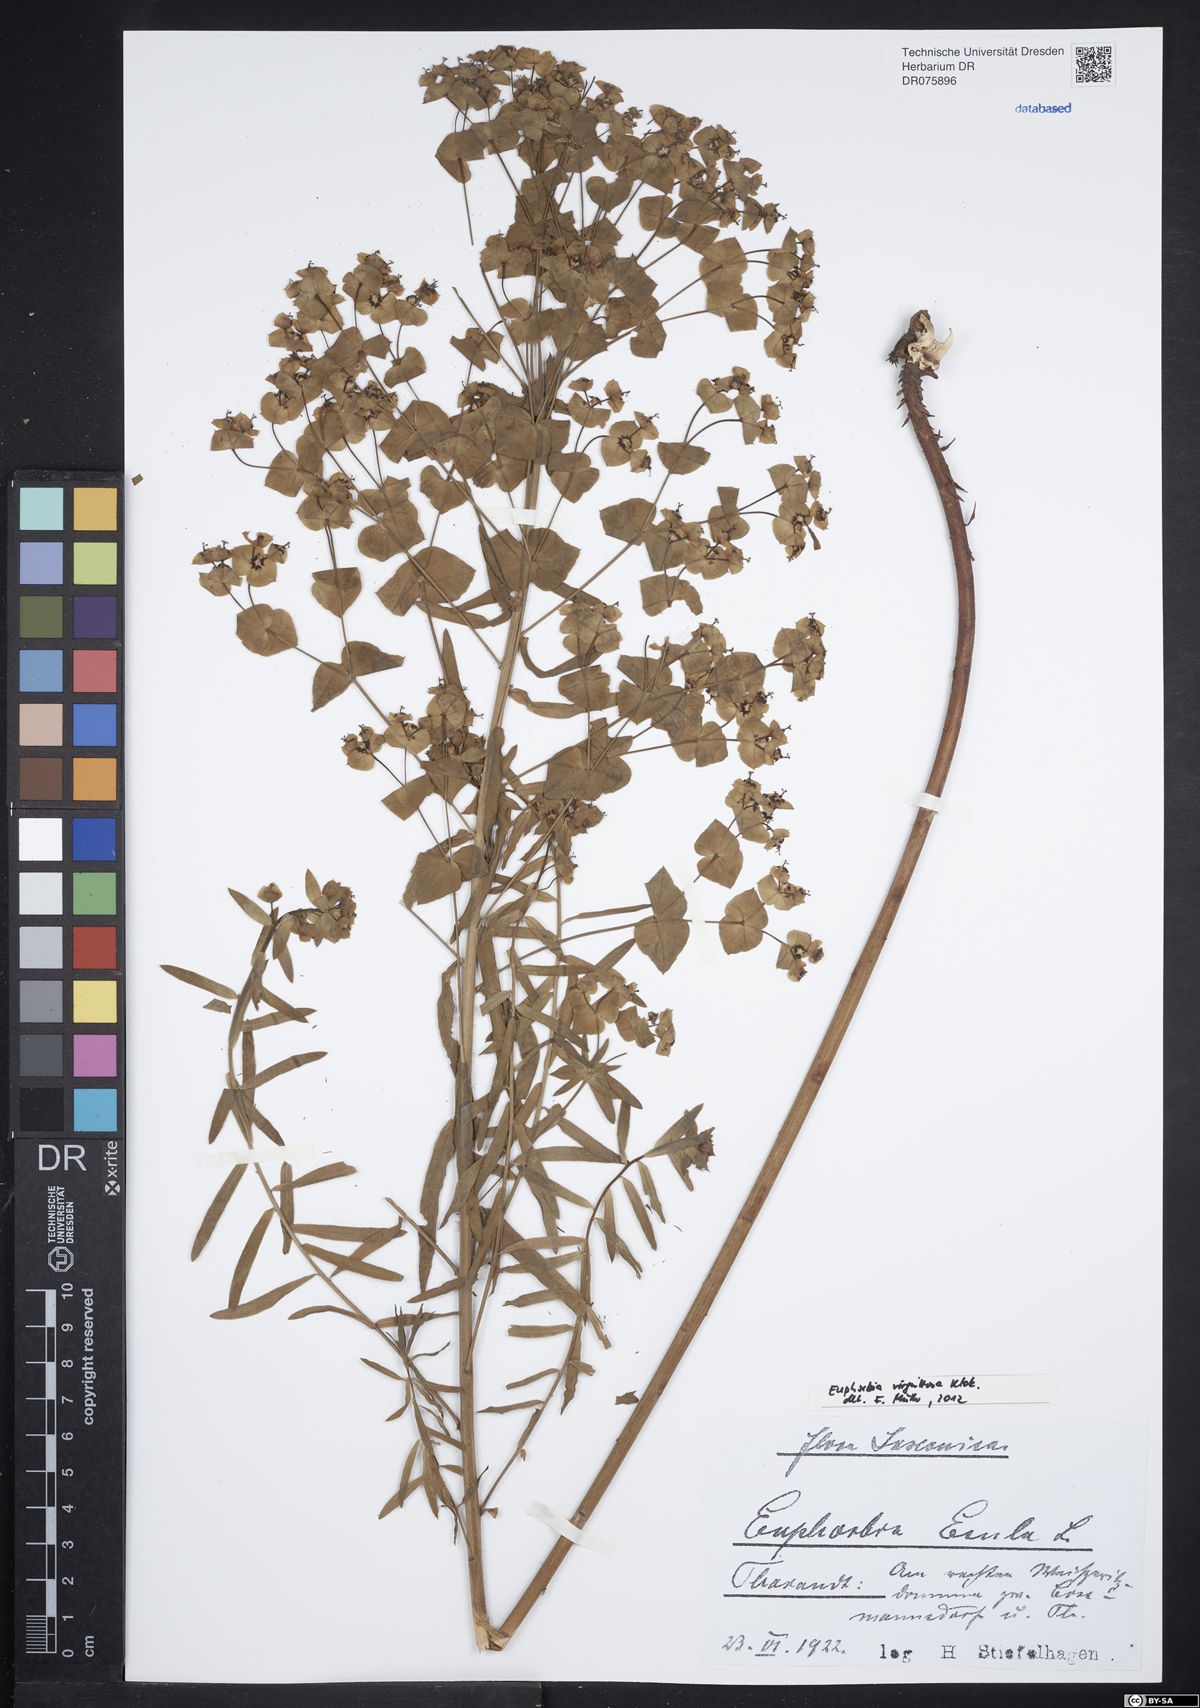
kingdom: Plantae
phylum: Tracheophyta
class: Magnoliopsida
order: Malpighiales
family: Euphorbiaceae
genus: Euphorbia
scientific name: Euphorbia saratoi
